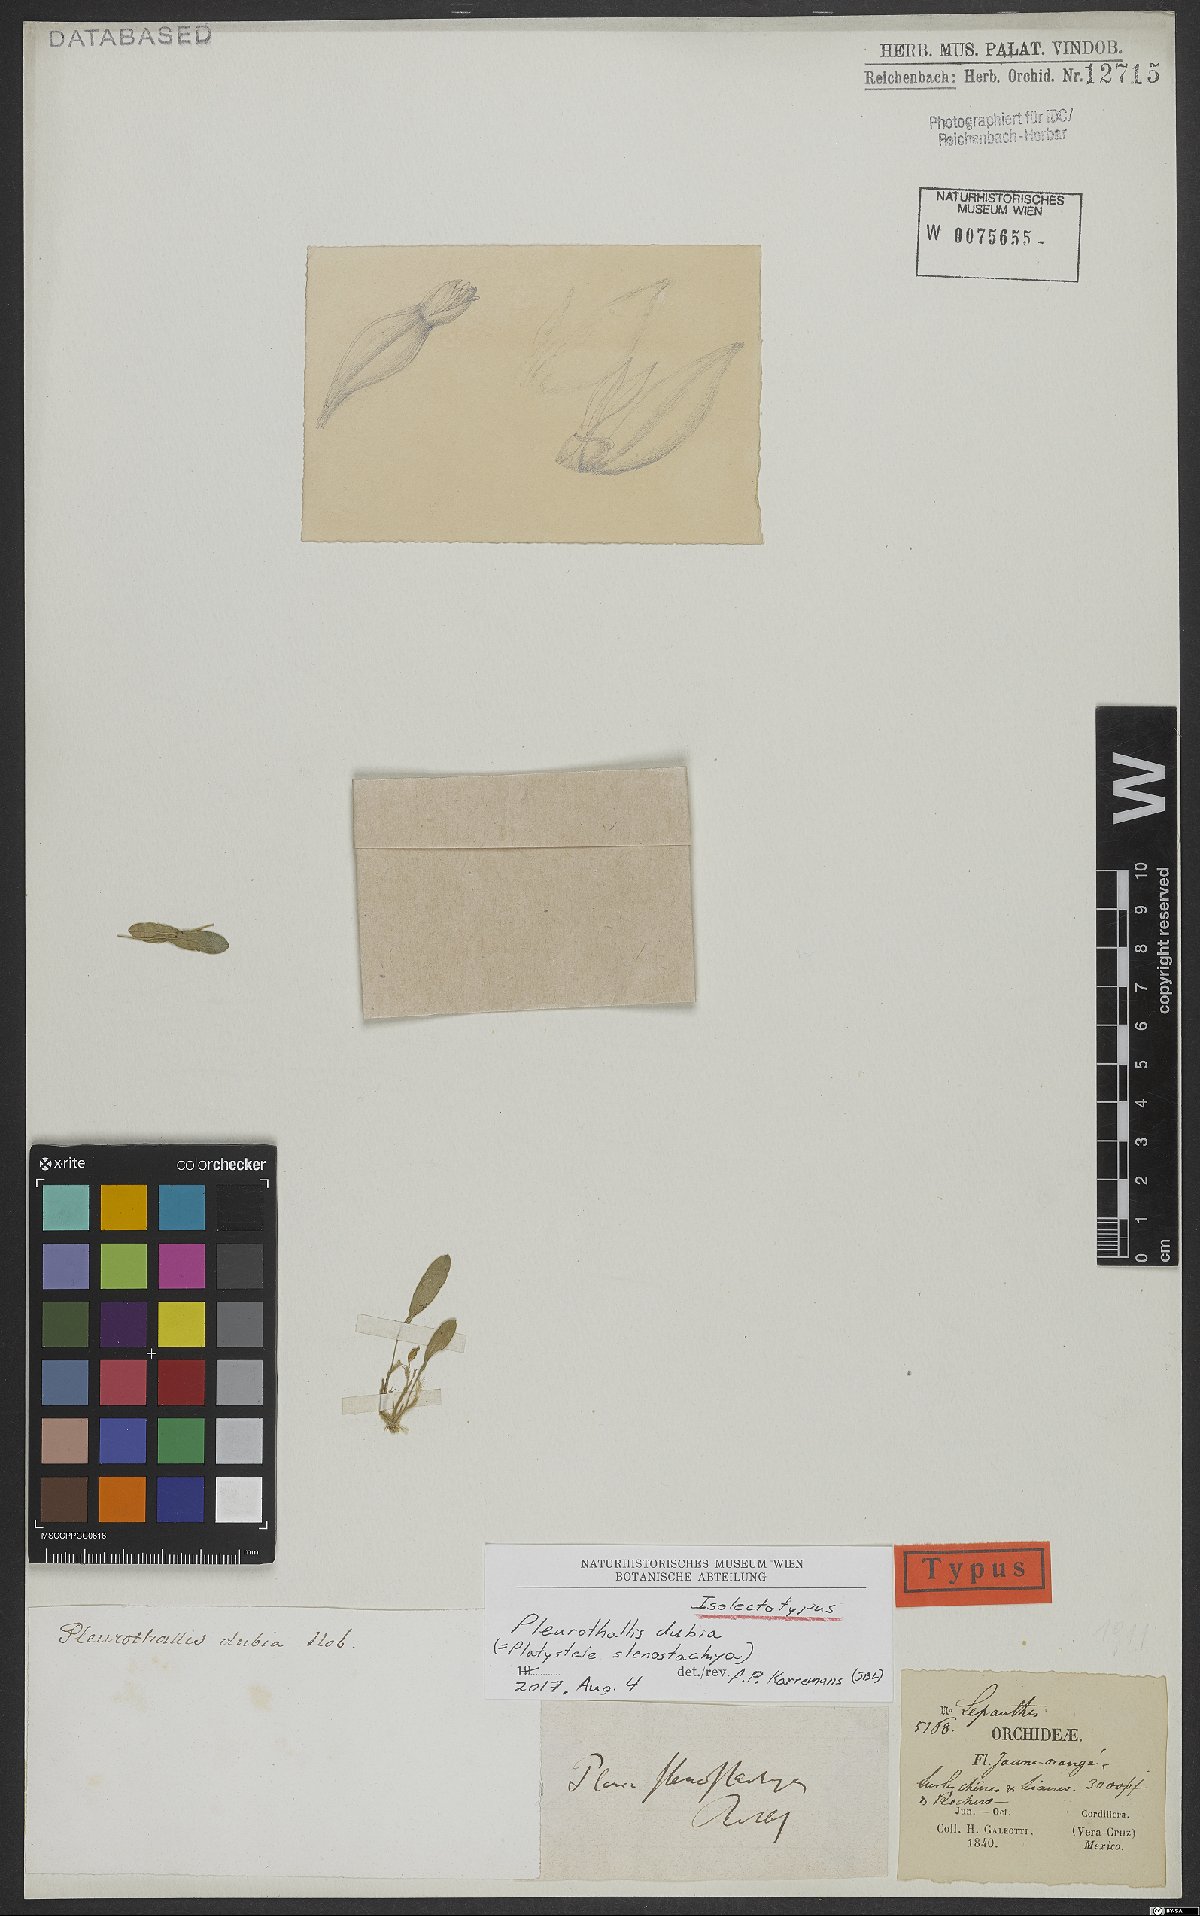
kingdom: Plantae
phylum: Tracheophyta
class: Liliopsida
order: Asparagales
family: Orchidaceae
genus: Platystele
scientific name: Platystele stenostachya
